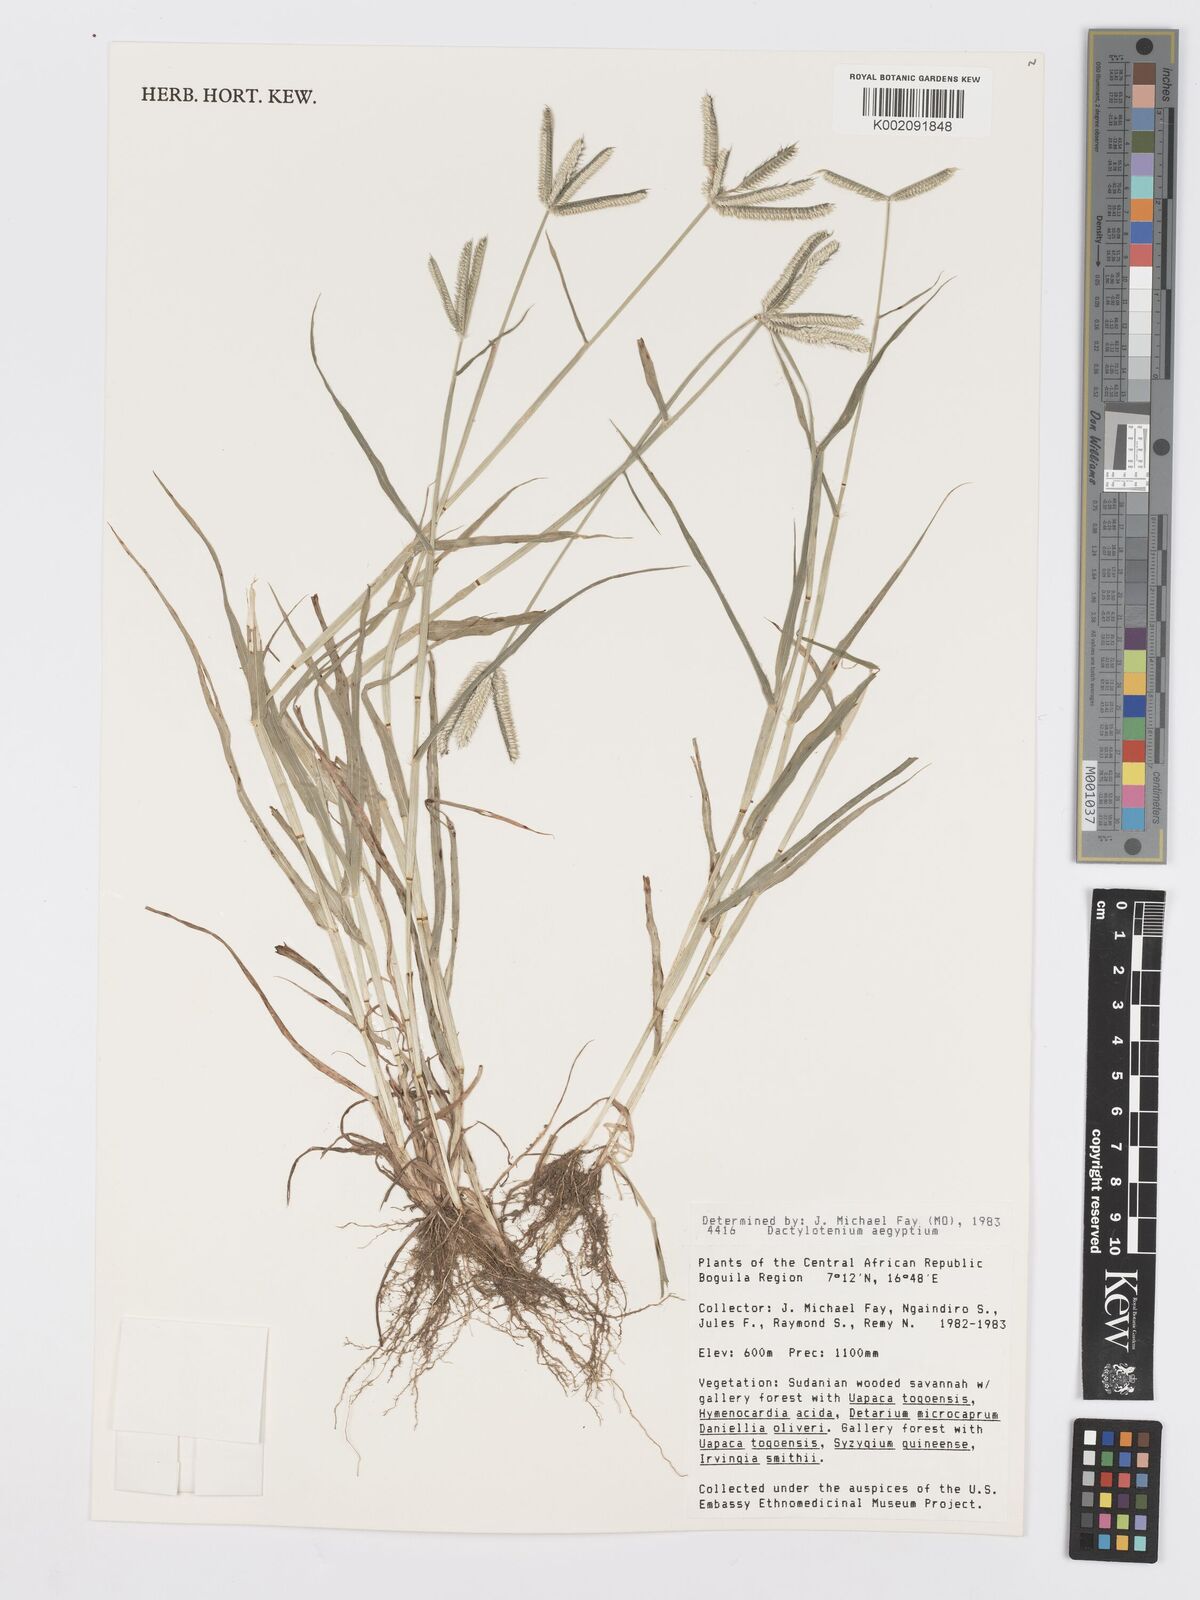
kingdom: Plantae
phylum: Tracheophyta
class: Liliopsida
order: Poales
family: Poaceae
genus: Dactyloctenium
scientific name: Dactyloctenium aegyptium
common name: Egyptian grass
